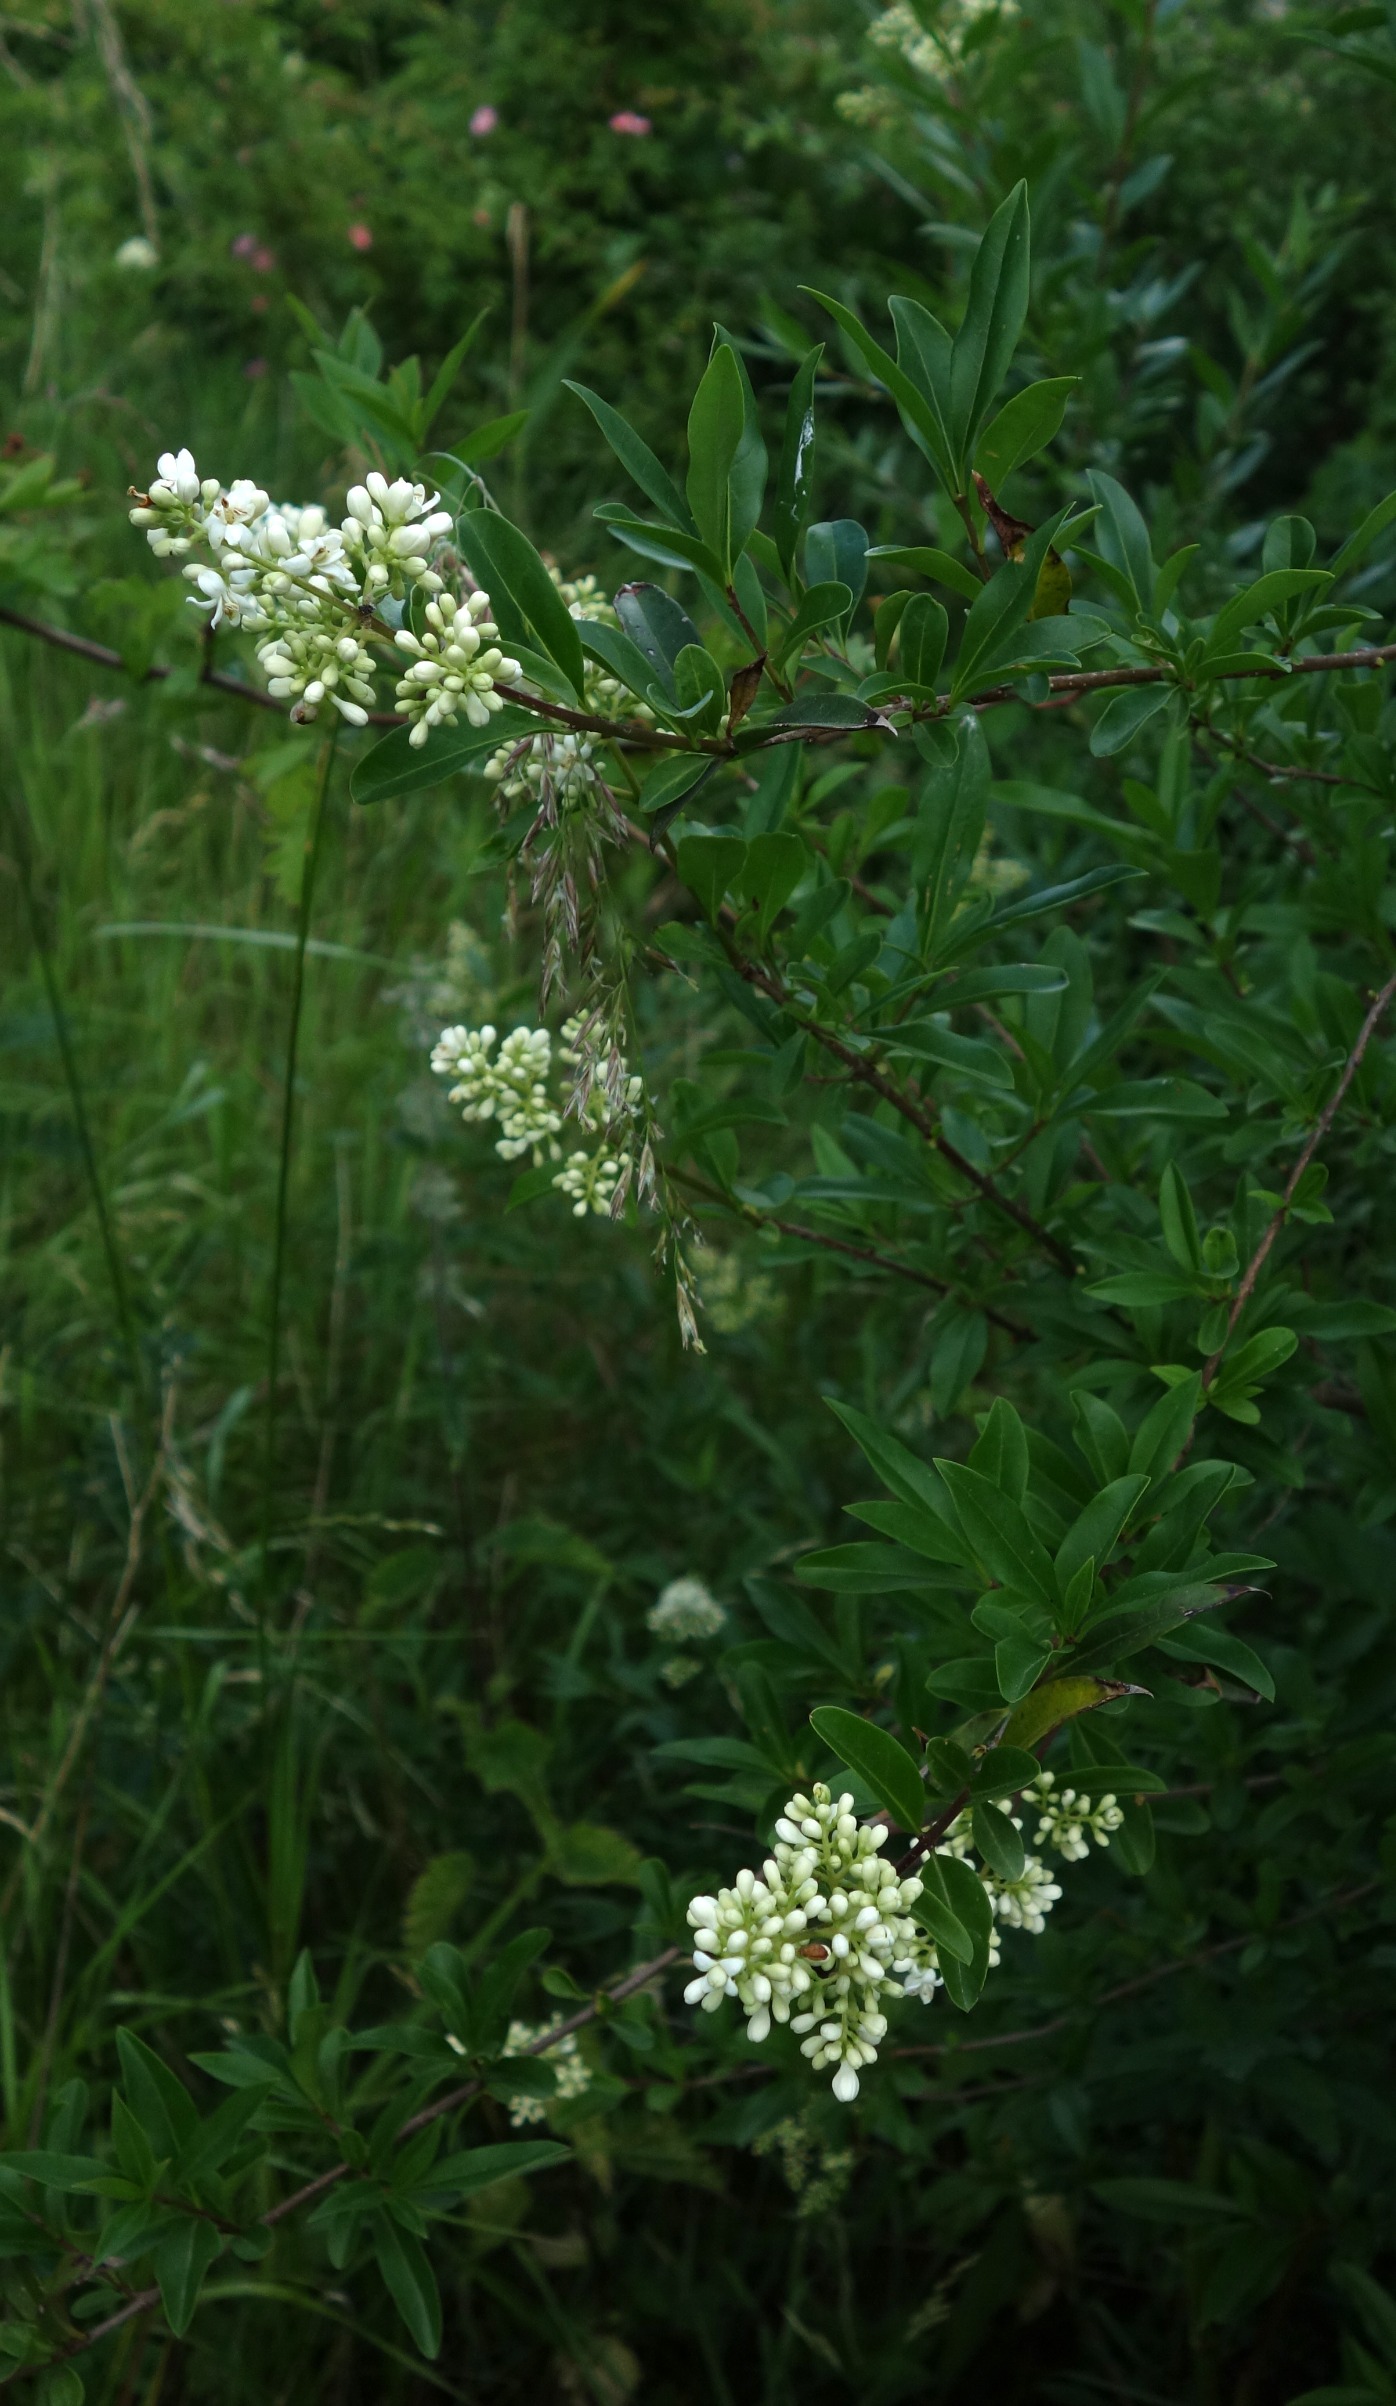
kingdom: Plantae
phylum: Tracheophyta
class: Magnoliopsida
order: Lamiales
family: Oleaceae
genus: Ligustrum
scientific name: Ligustrum vulgare
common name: Liguster
